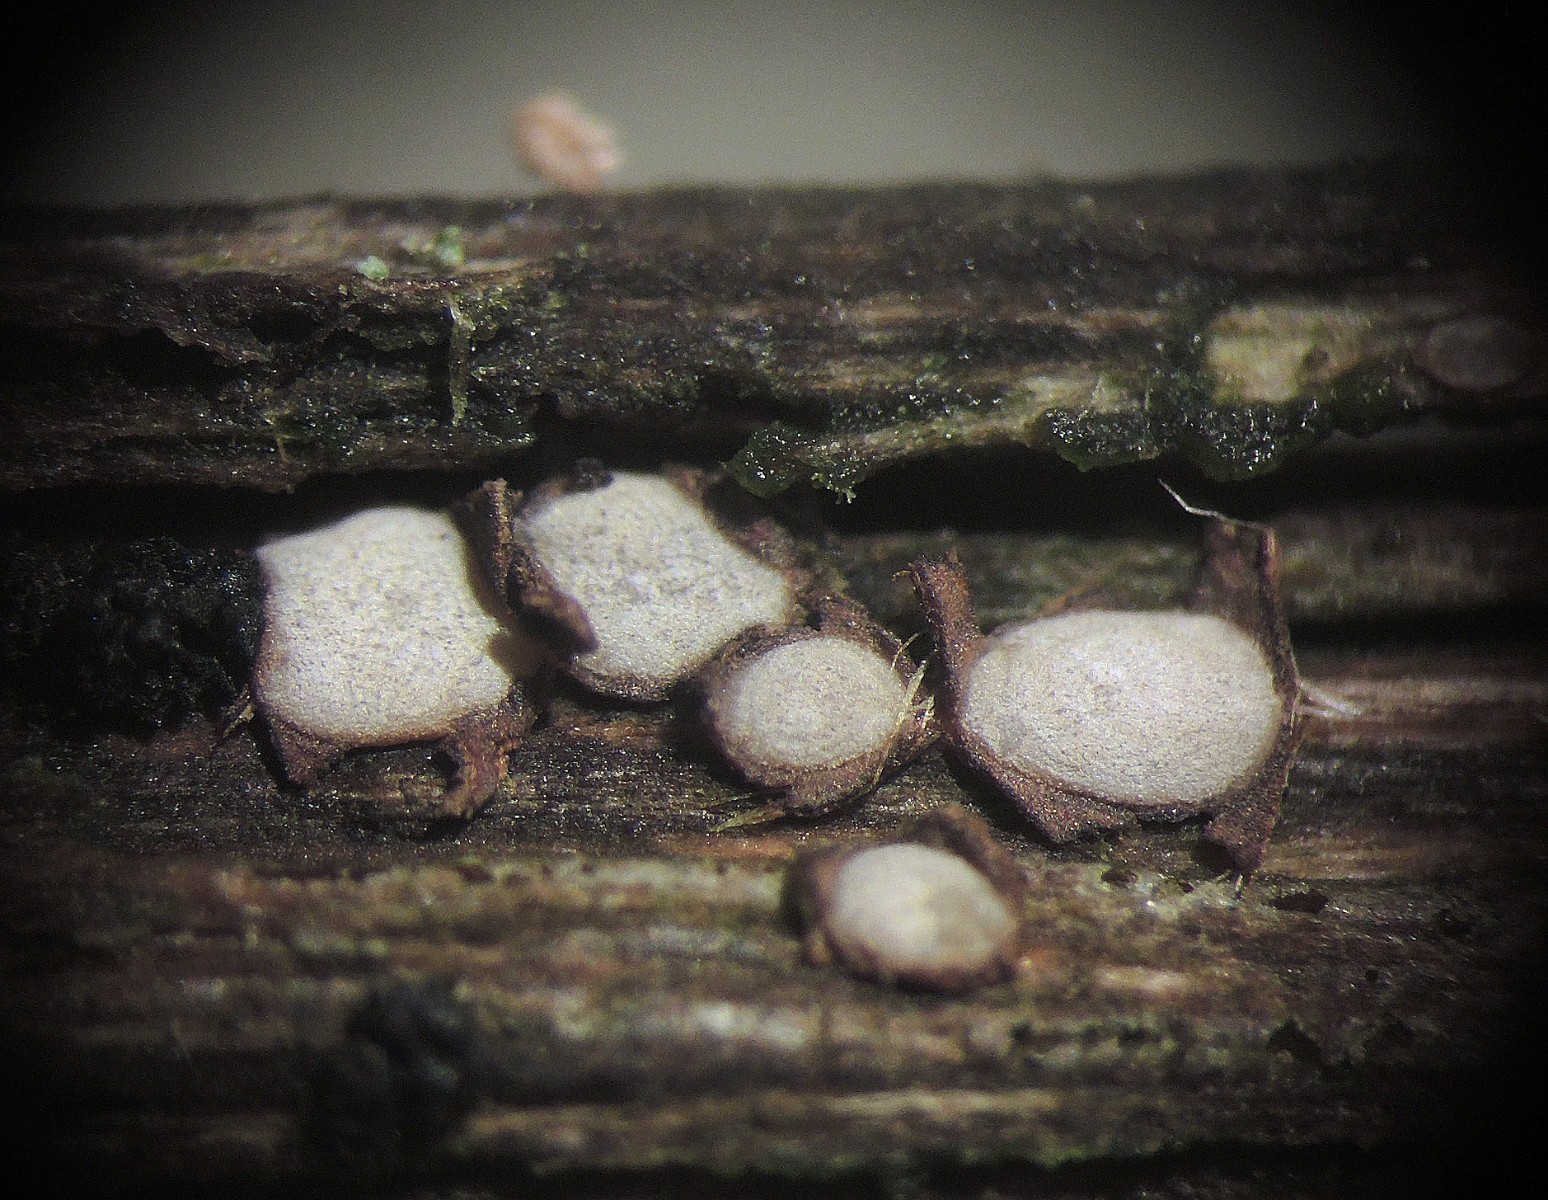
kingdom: Fungi
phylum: Ascomycota
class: Leotiomycetes
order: Chaetomellales
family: Marthamycetaceae
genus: Propolis
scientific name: Propolis farinosa
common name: almindelig vedsprængerskive
